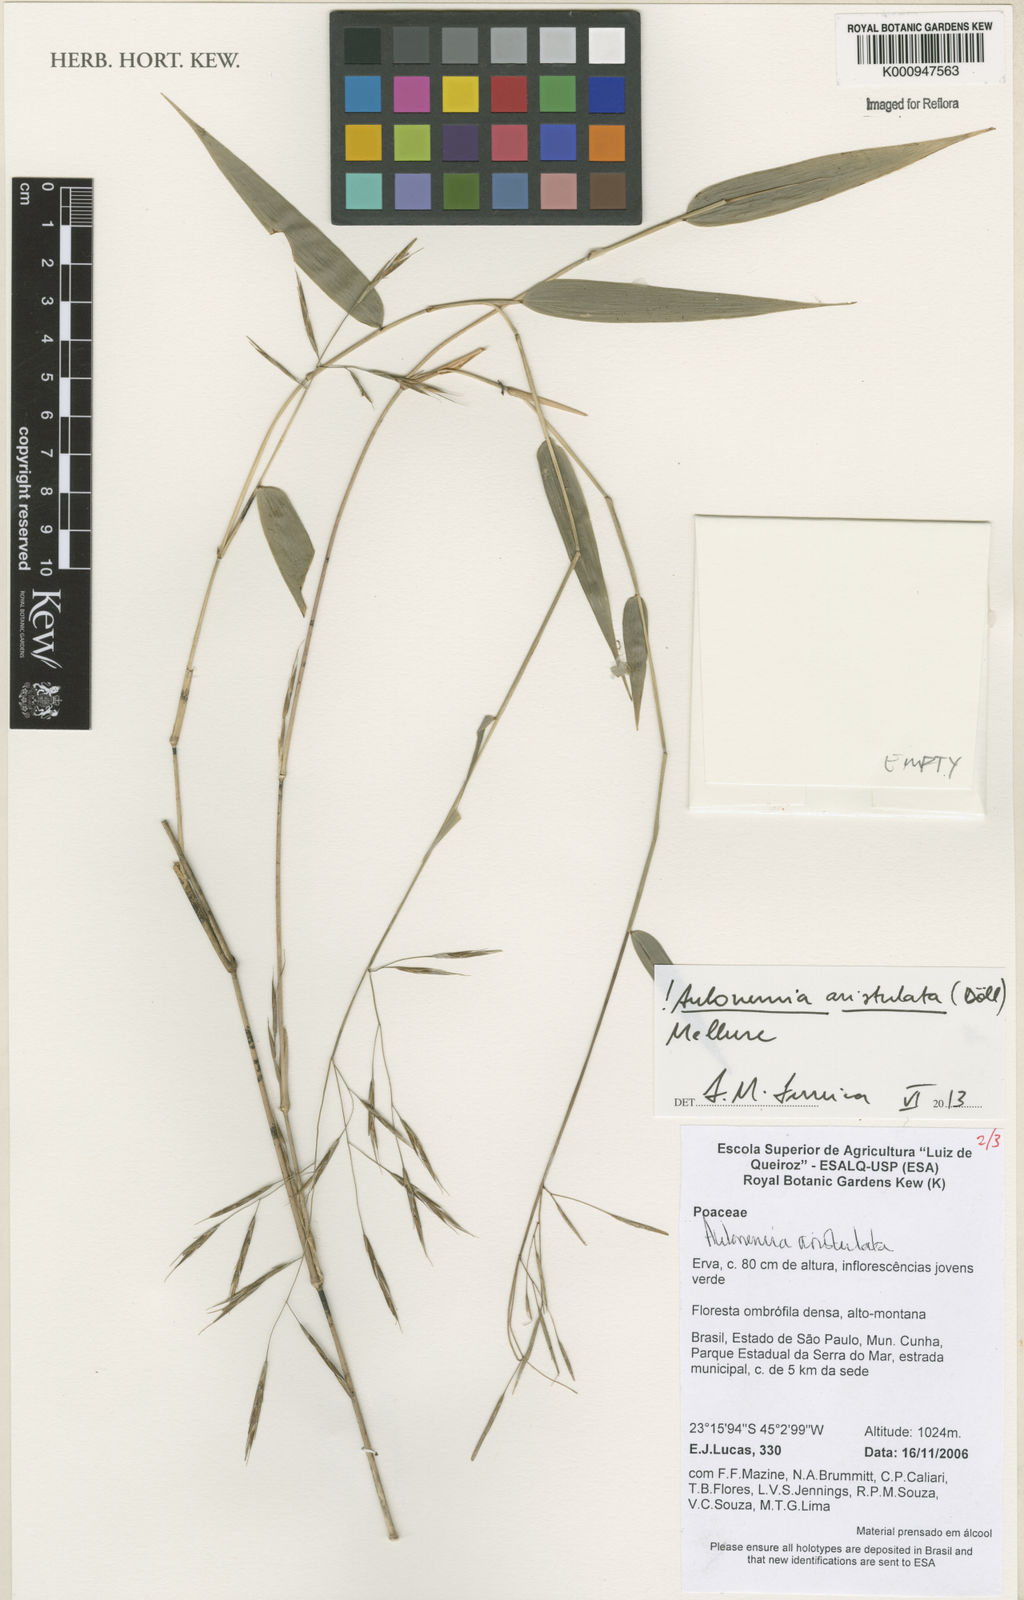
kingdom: Plantae
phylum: Tracheophyta
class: Liliopsida
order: Poales
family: Poaceae
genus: Aulonemia
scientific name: Aulonemia
